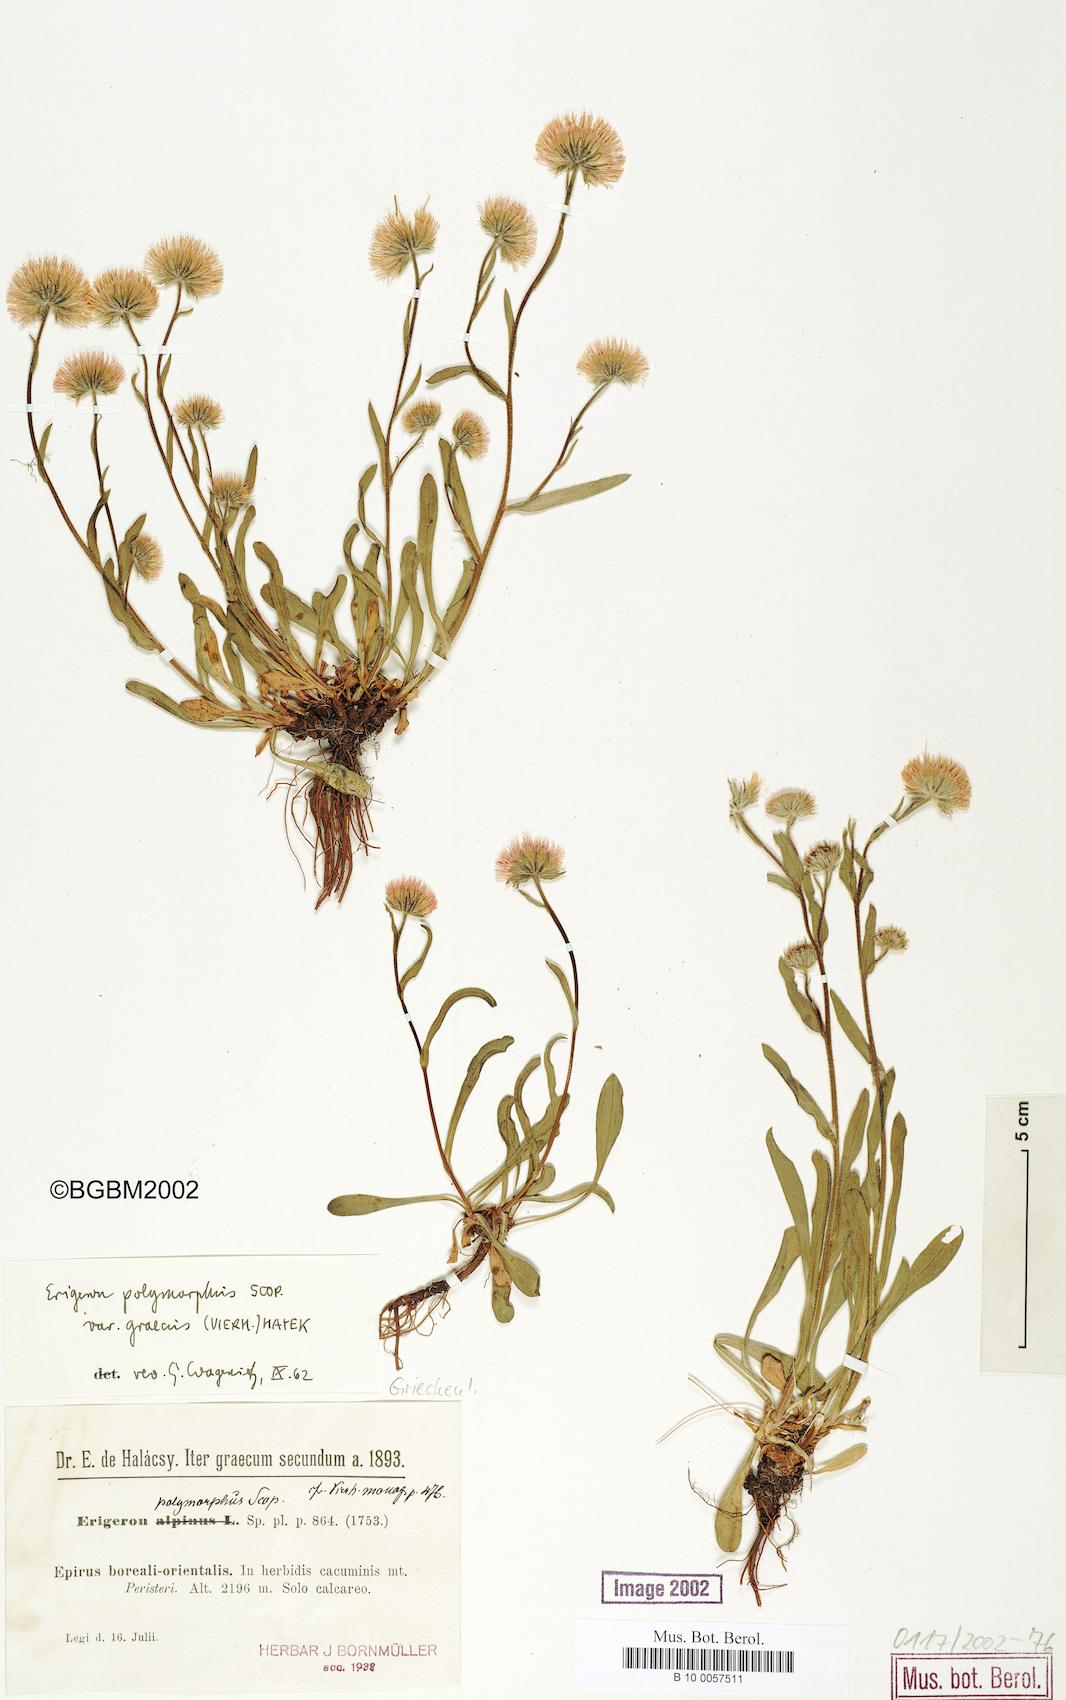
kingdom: Plantae
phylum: Tracheophyta
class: Magnoliopsida
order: Asterales
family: Asteraceae
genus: Erigeron
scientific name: Erigeron glabratus
